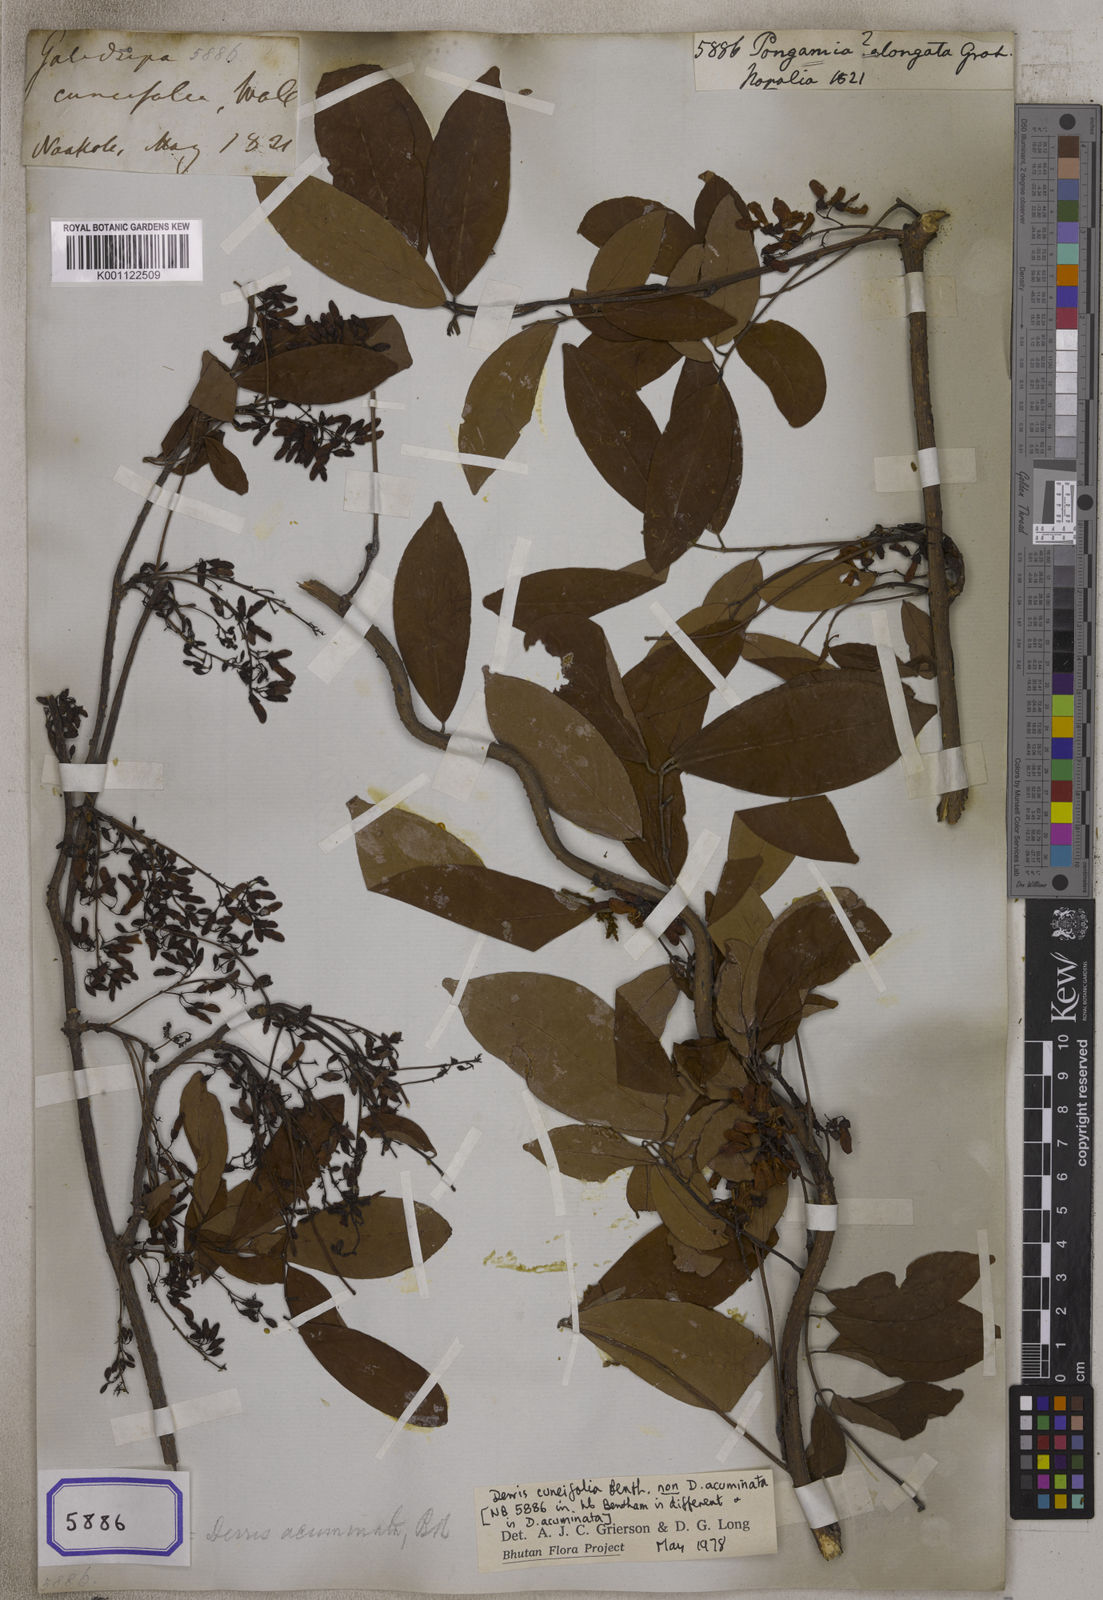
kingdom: Plantae
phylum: Tracheophyta
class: Magnoliopsida
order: Fabales
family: Fabaceae
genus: Derris
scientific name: Derris acuminata
